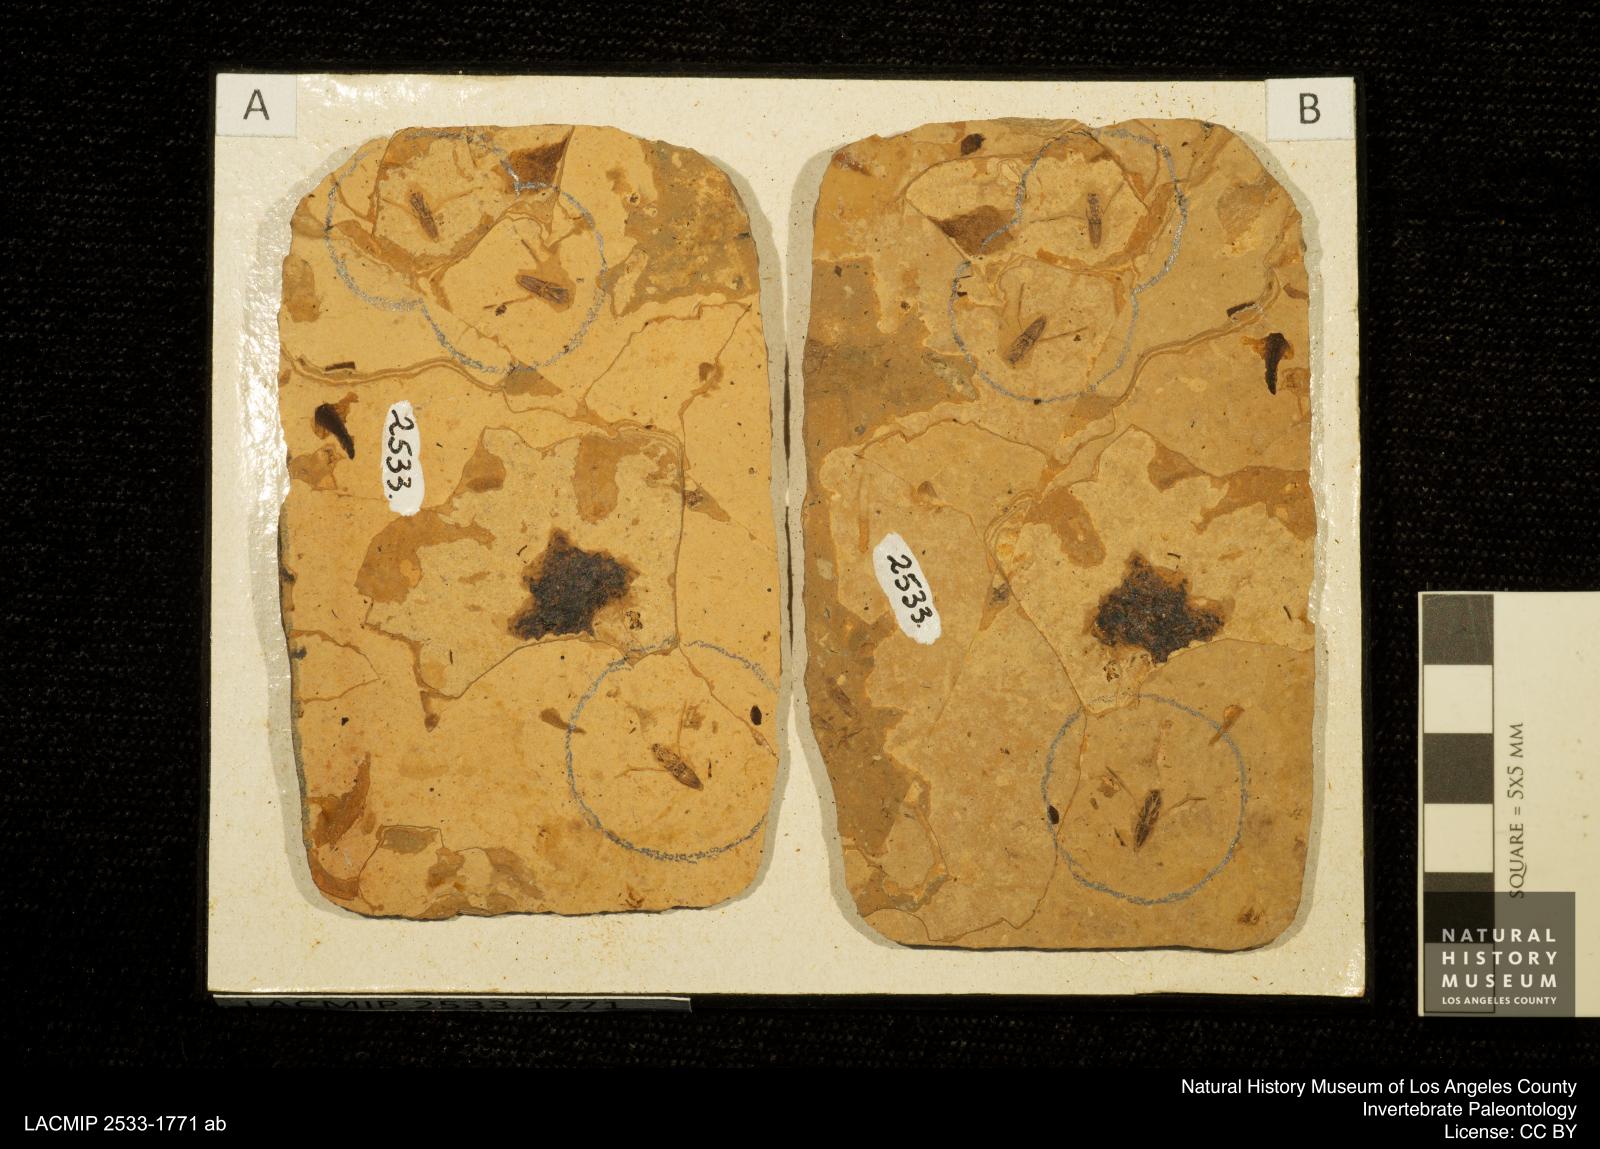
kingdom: Animalia
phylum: Arthropoda
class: Insecta
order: Hemiptera
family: Notonectidae
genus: Notonecta
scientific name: Notonecta
